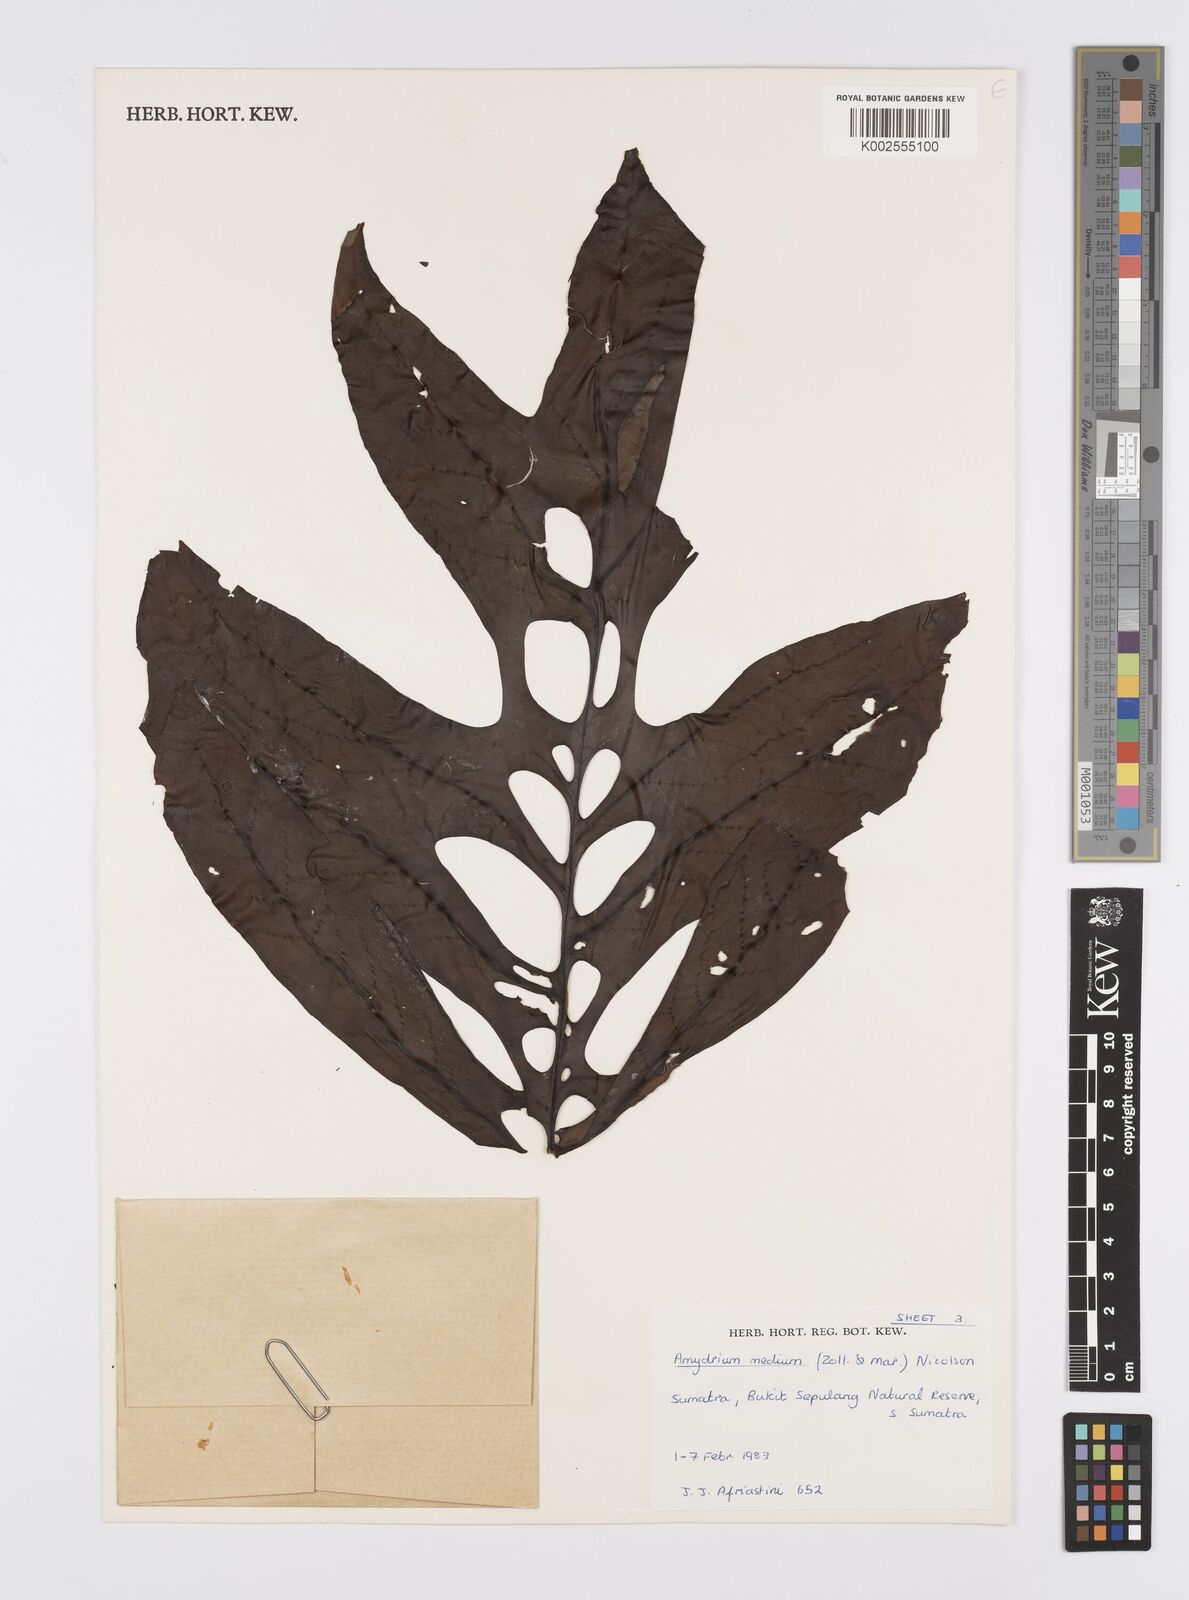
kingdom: Plantae
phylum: Tracheophyta
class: Liliopsida
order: Alismatales
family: Araceae
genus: Amydrium
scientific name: Amydrium medium
